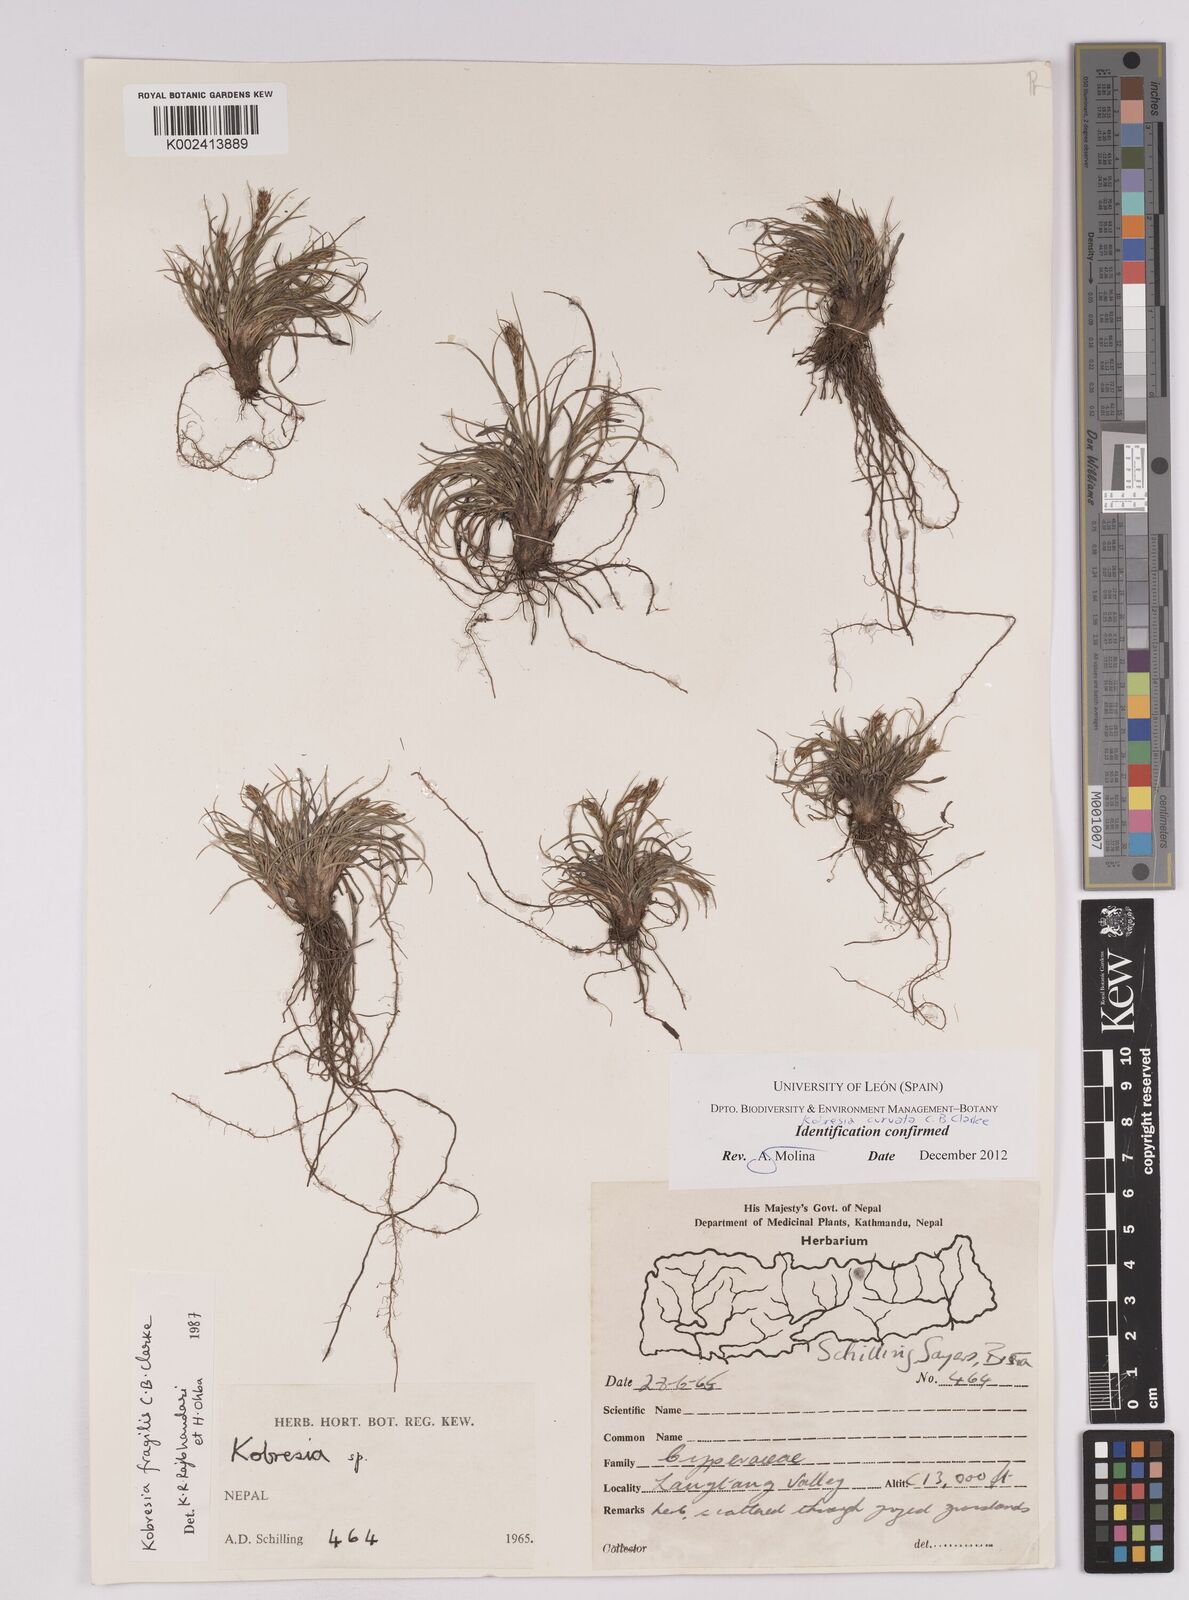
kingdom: Plantae
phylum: Tracheophyta
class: Liliopsida
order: Poales
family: Cyperaceae
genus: Carex
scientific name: Carex bonatiana
